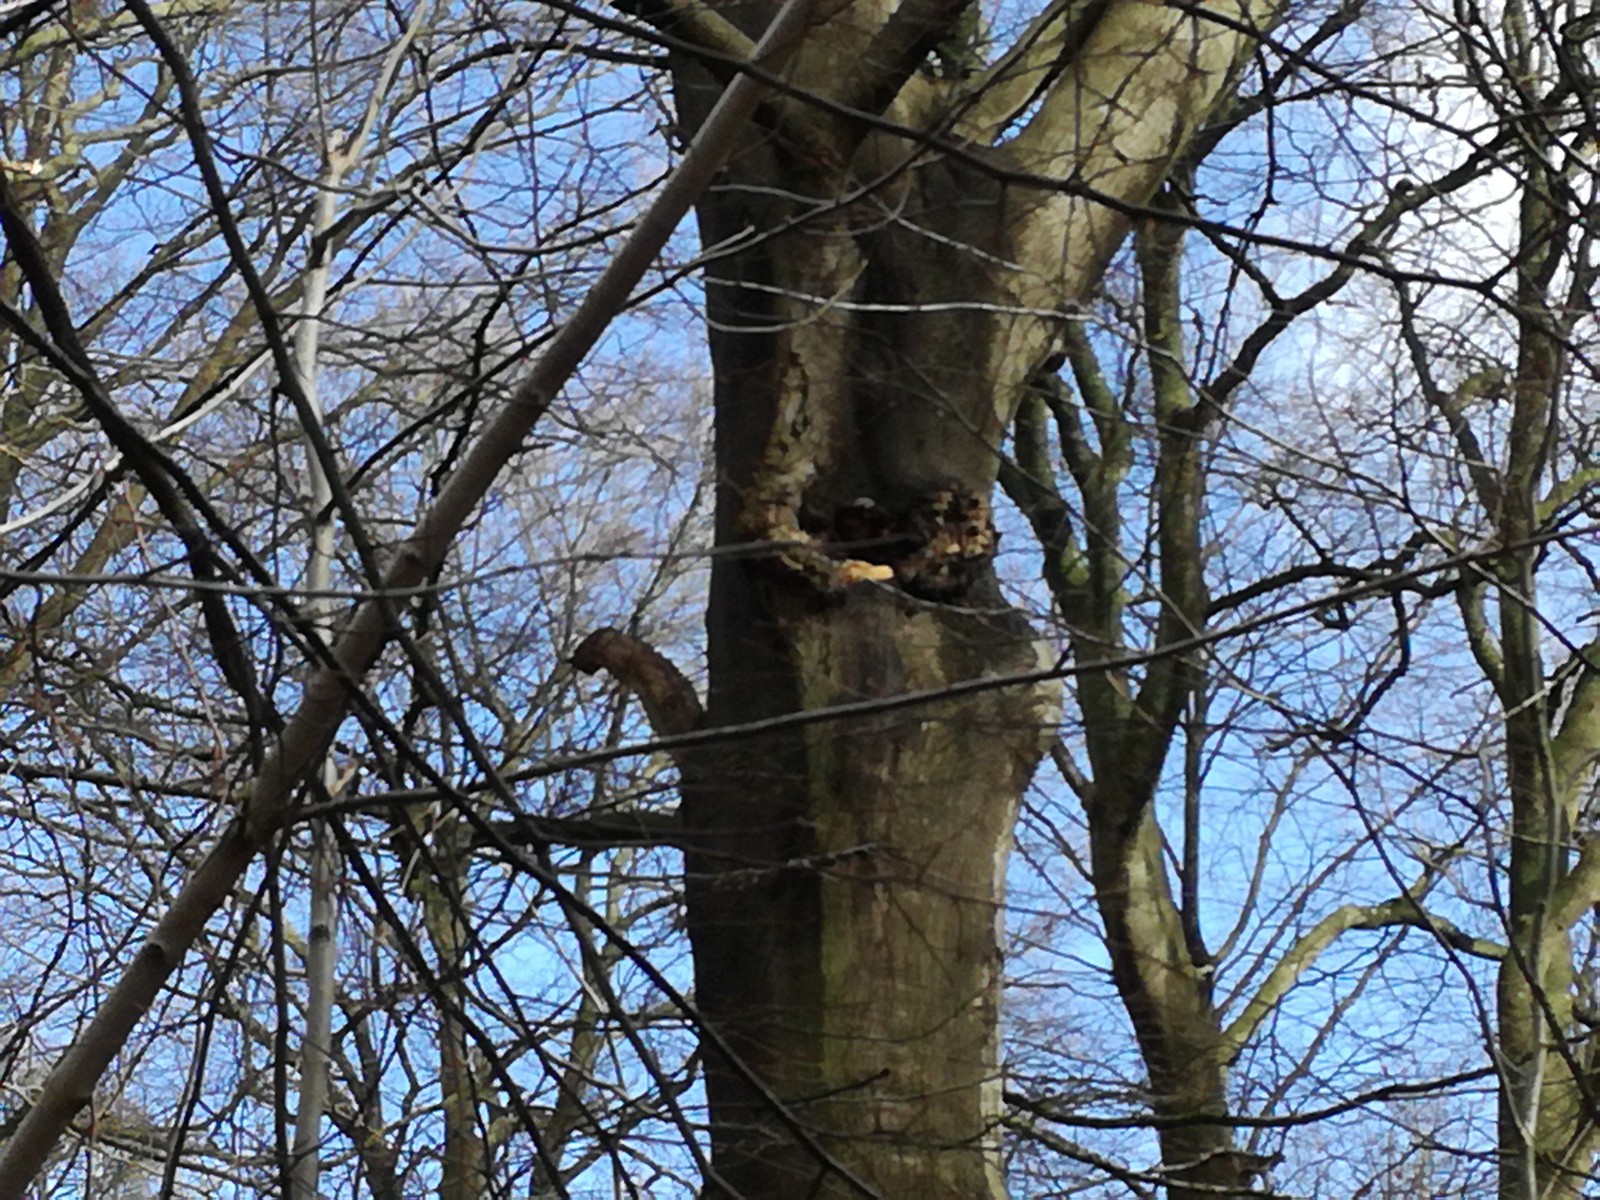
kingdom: Fungi
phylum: Basidiomycota
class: Agaricomycetes
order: Russulales
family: Hericiaceae
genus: Hericium
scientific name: Hericium erinaceus
